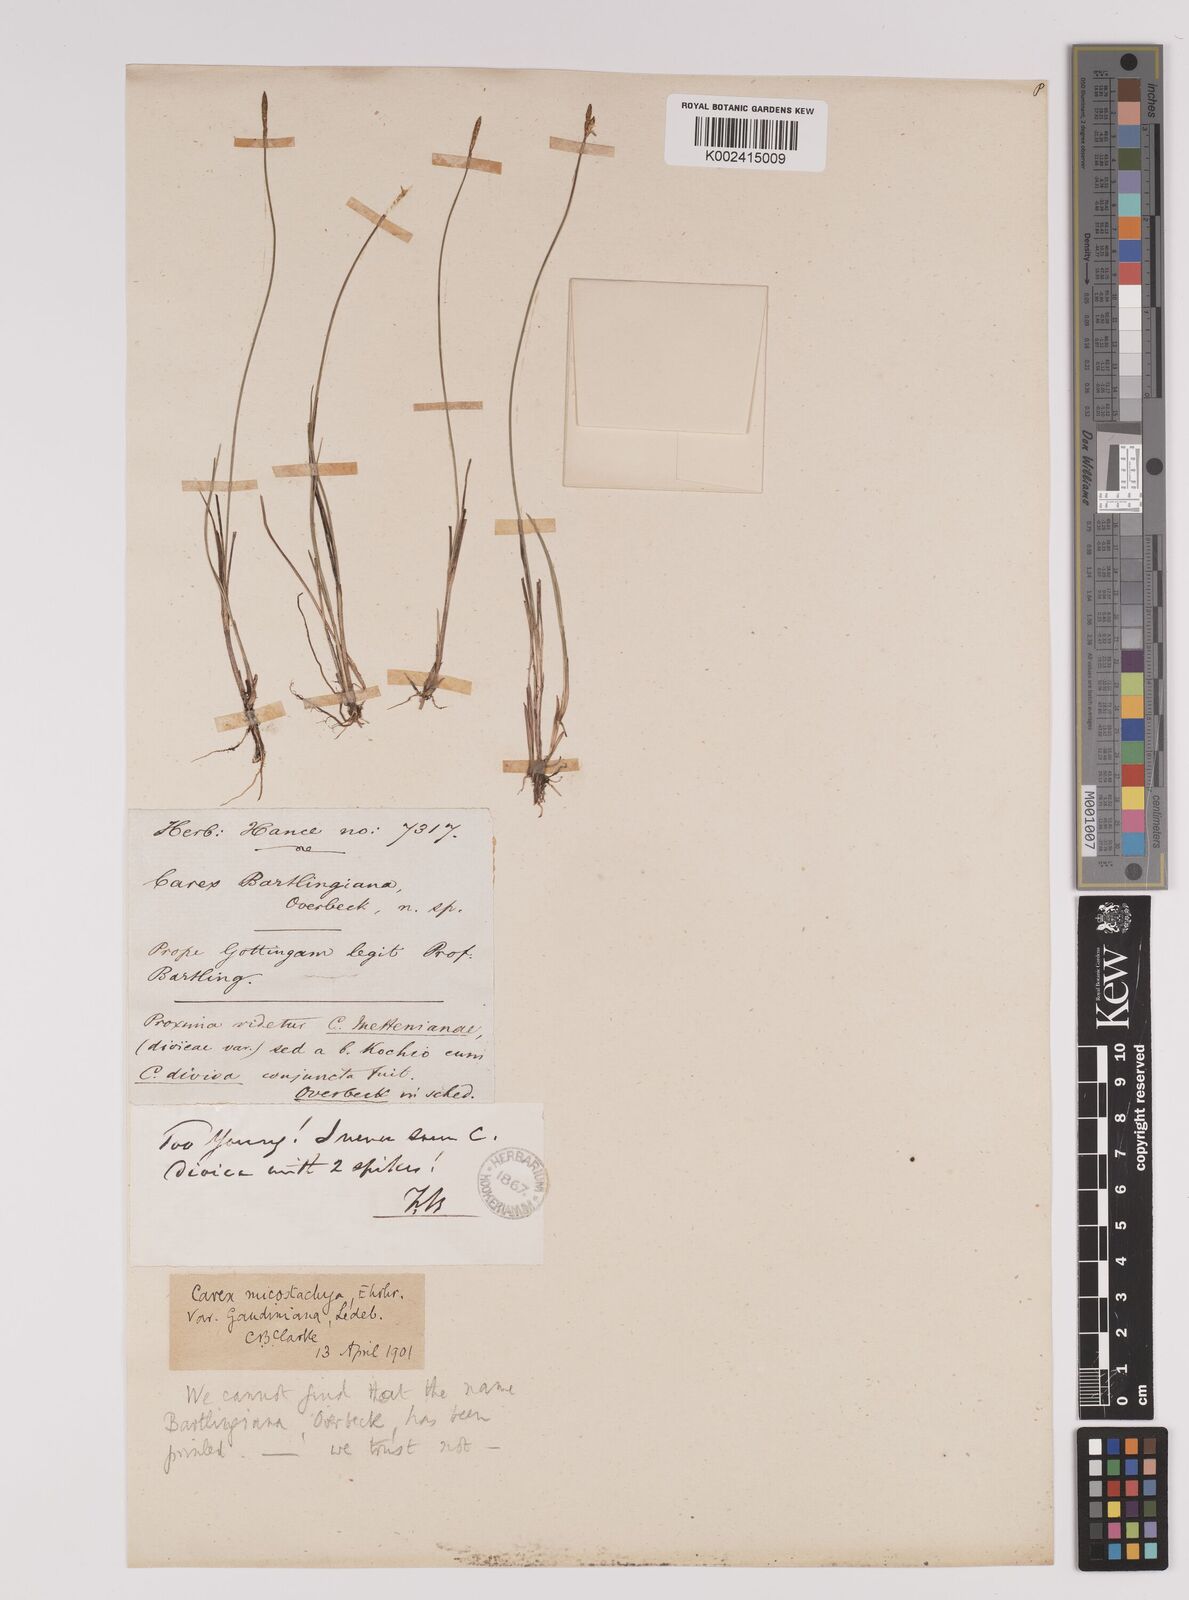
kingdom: Plantae
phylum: Tracheophyta
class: Liliopsida
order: Poales
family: Cyperaceae
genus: Carex
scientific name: Carex dioica
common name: Dioecious sedge
